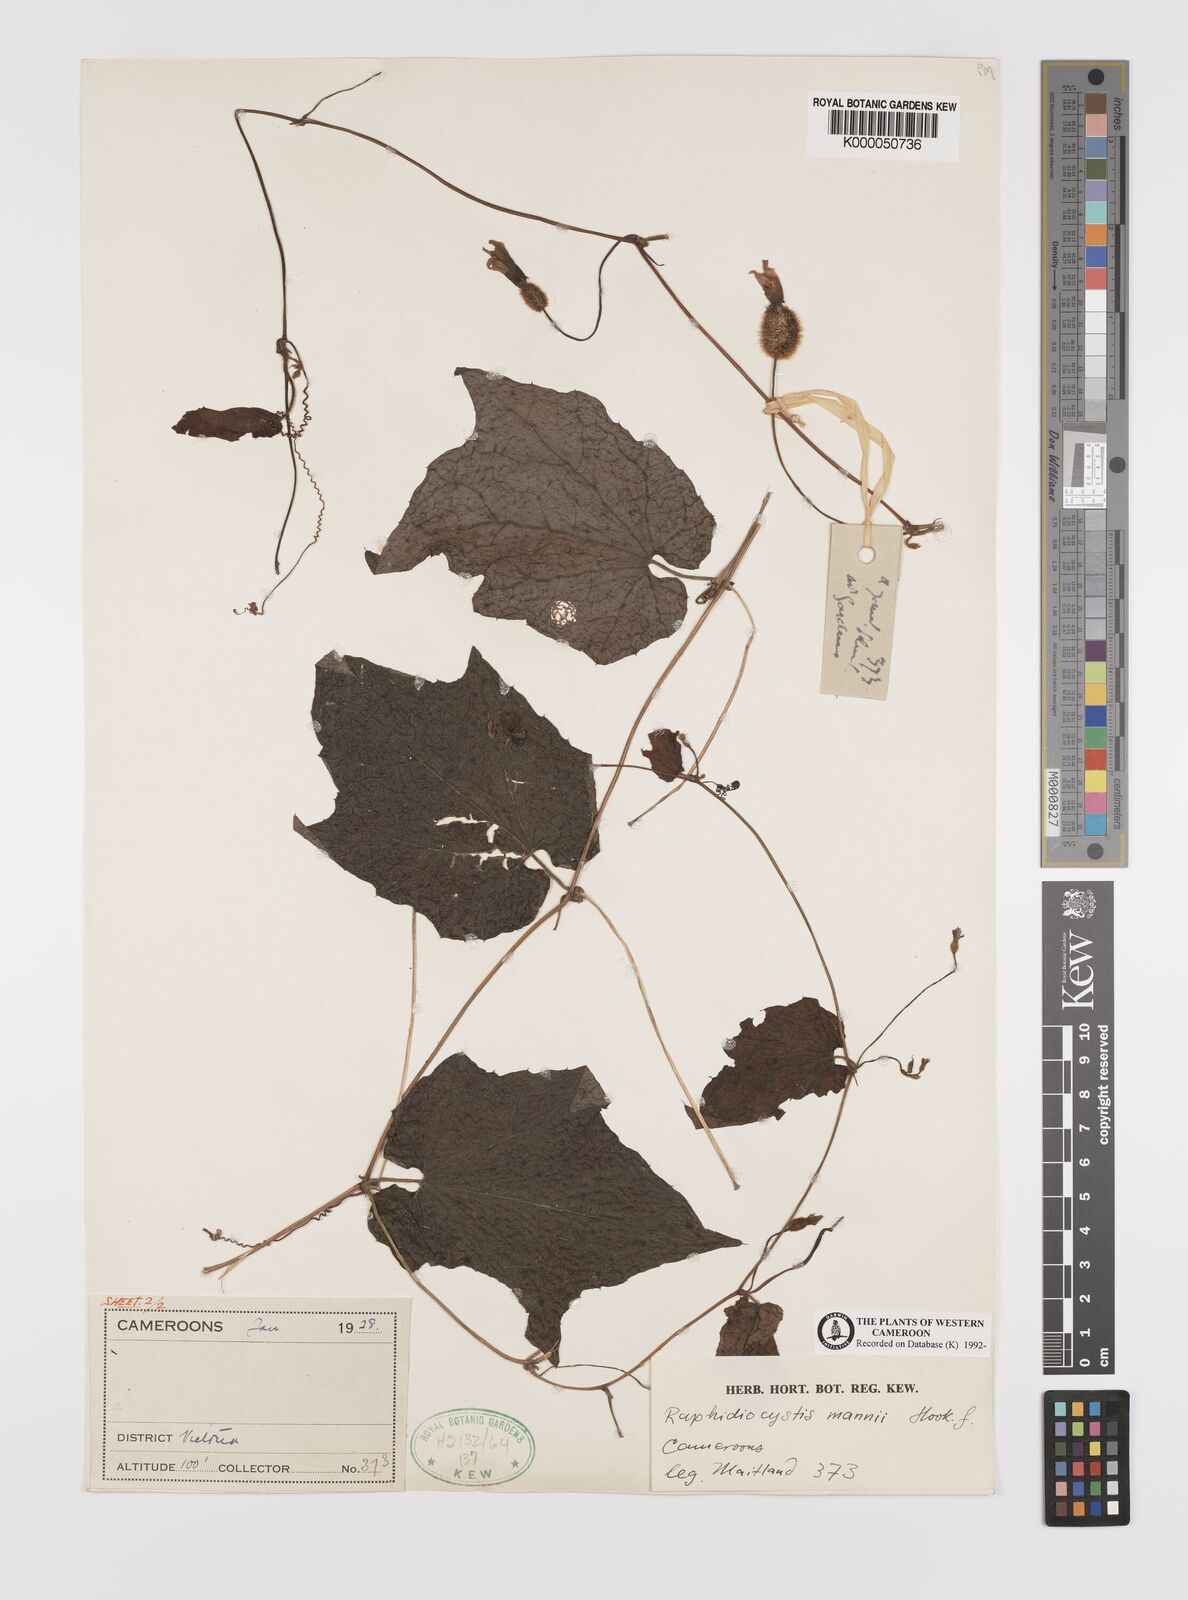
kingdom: Plantae
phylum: Tracheophyta
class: Magnoliopsida
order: Cucurbitales
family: Cucurbitaceae
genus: Raphidiocystis
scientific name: Raphidiocystis mannii
